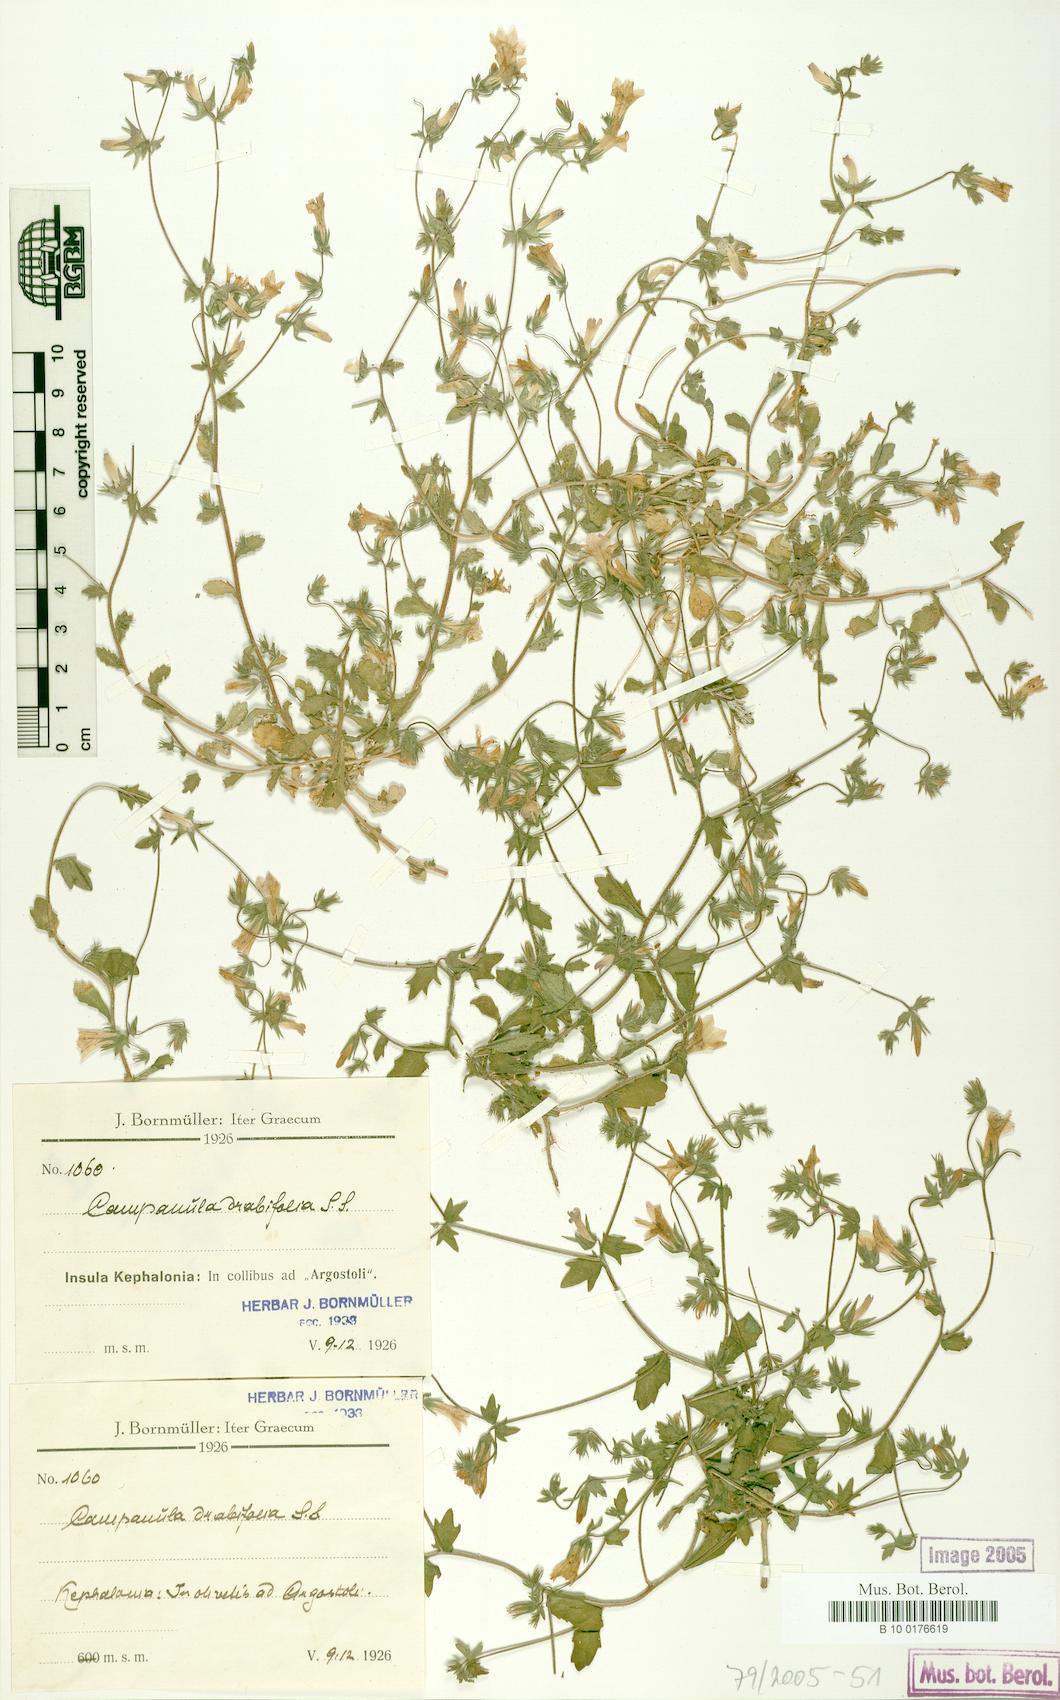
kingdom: Plantae
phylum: Tracheophyta
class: Magnoliopsida
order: Asterales
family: Campanulaceae
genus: Campanula
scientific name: Campanula drabifolia
